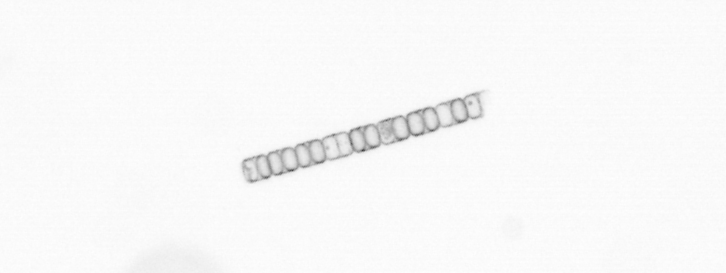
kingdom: Chromista
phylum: Ochrophyta
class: Bacillariophyceae
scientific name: Bacillariophyceae
